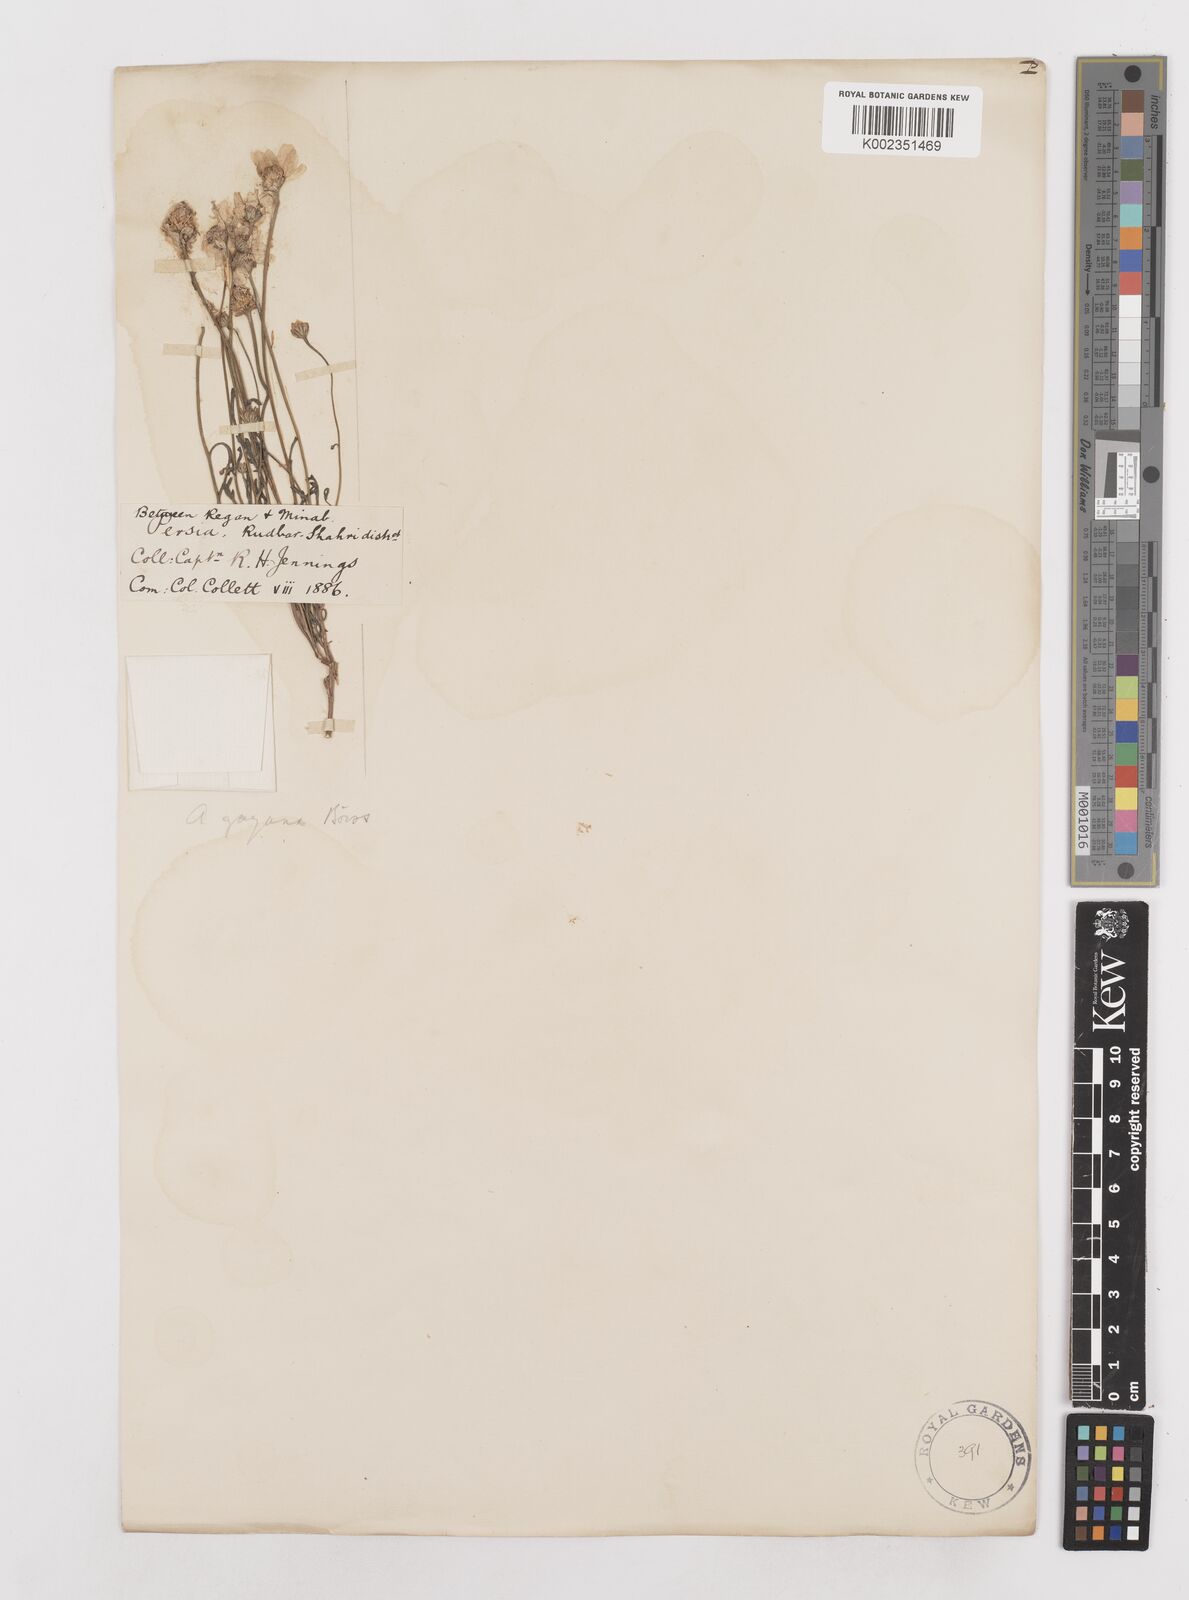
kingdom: Plantae
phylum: Tracheophyta
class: Magnoliopsida
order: Asterales
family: Asteraceae
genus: Anthemis
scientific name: Anthemis gayana
